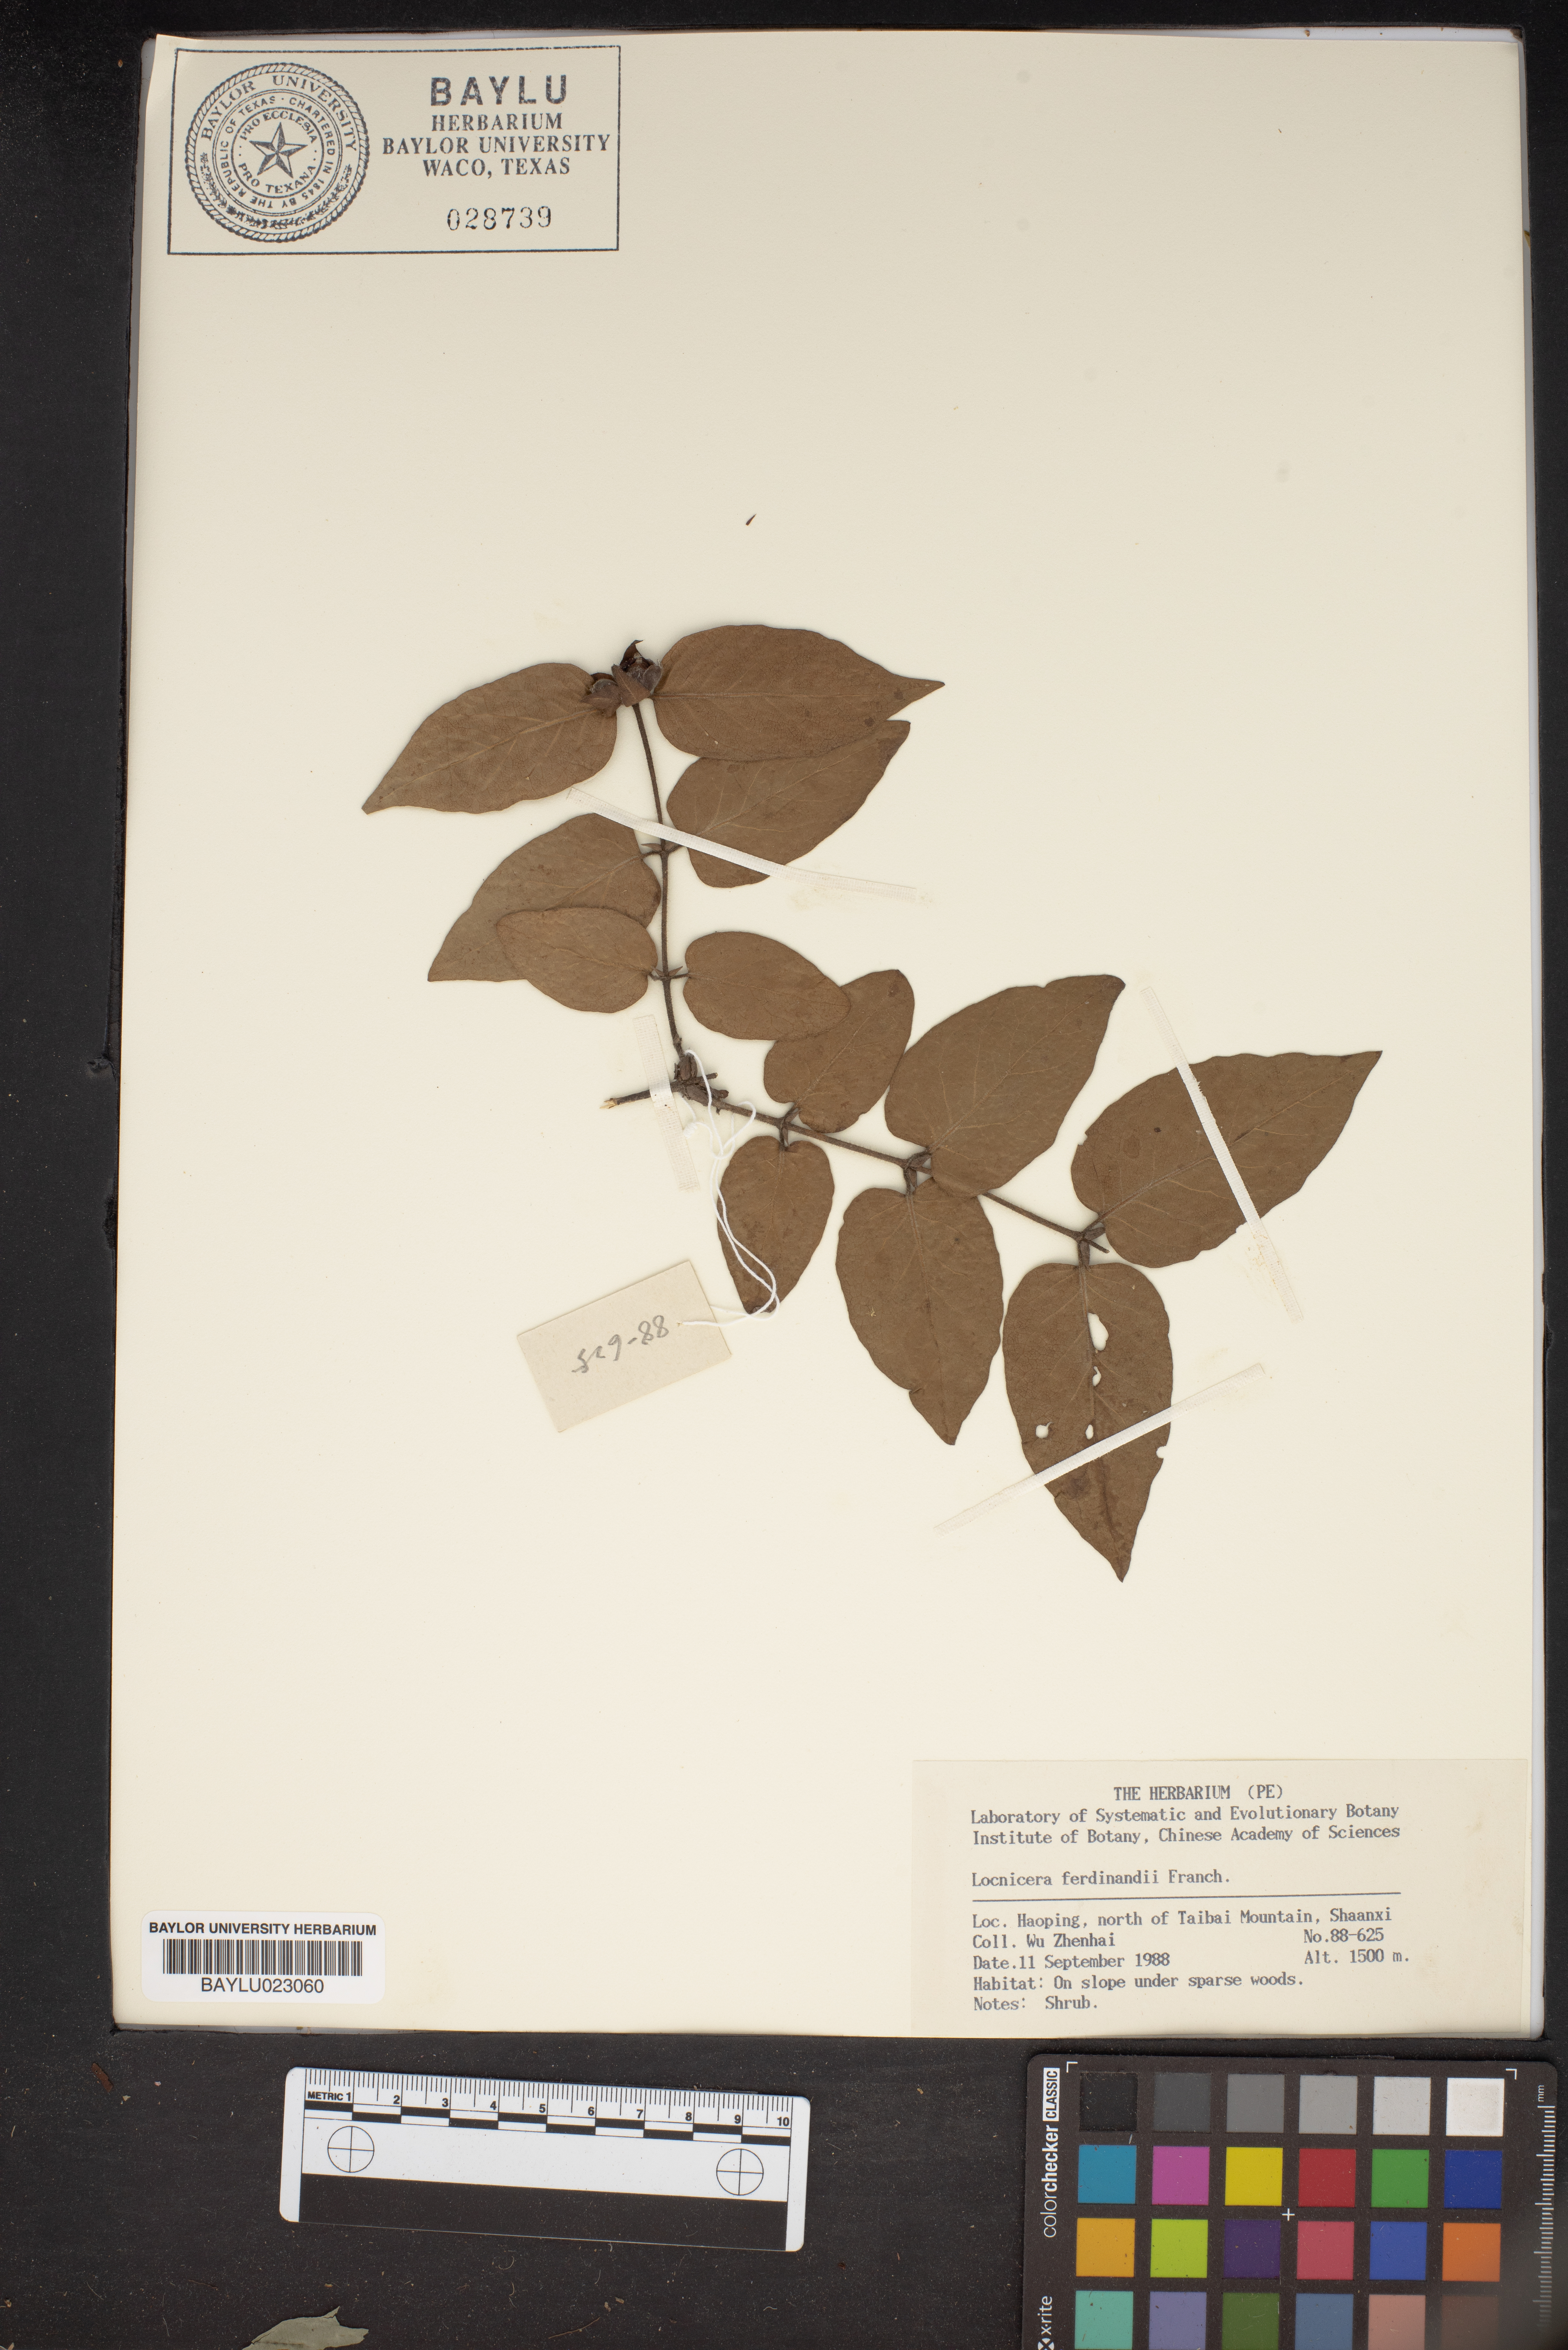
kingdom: Plantae
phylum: Tracheophyta
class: Magnoliopsida
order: Dipsacales
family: Caprifoliaceae
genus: Lonicera
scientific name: Lonicera ferdinandi
